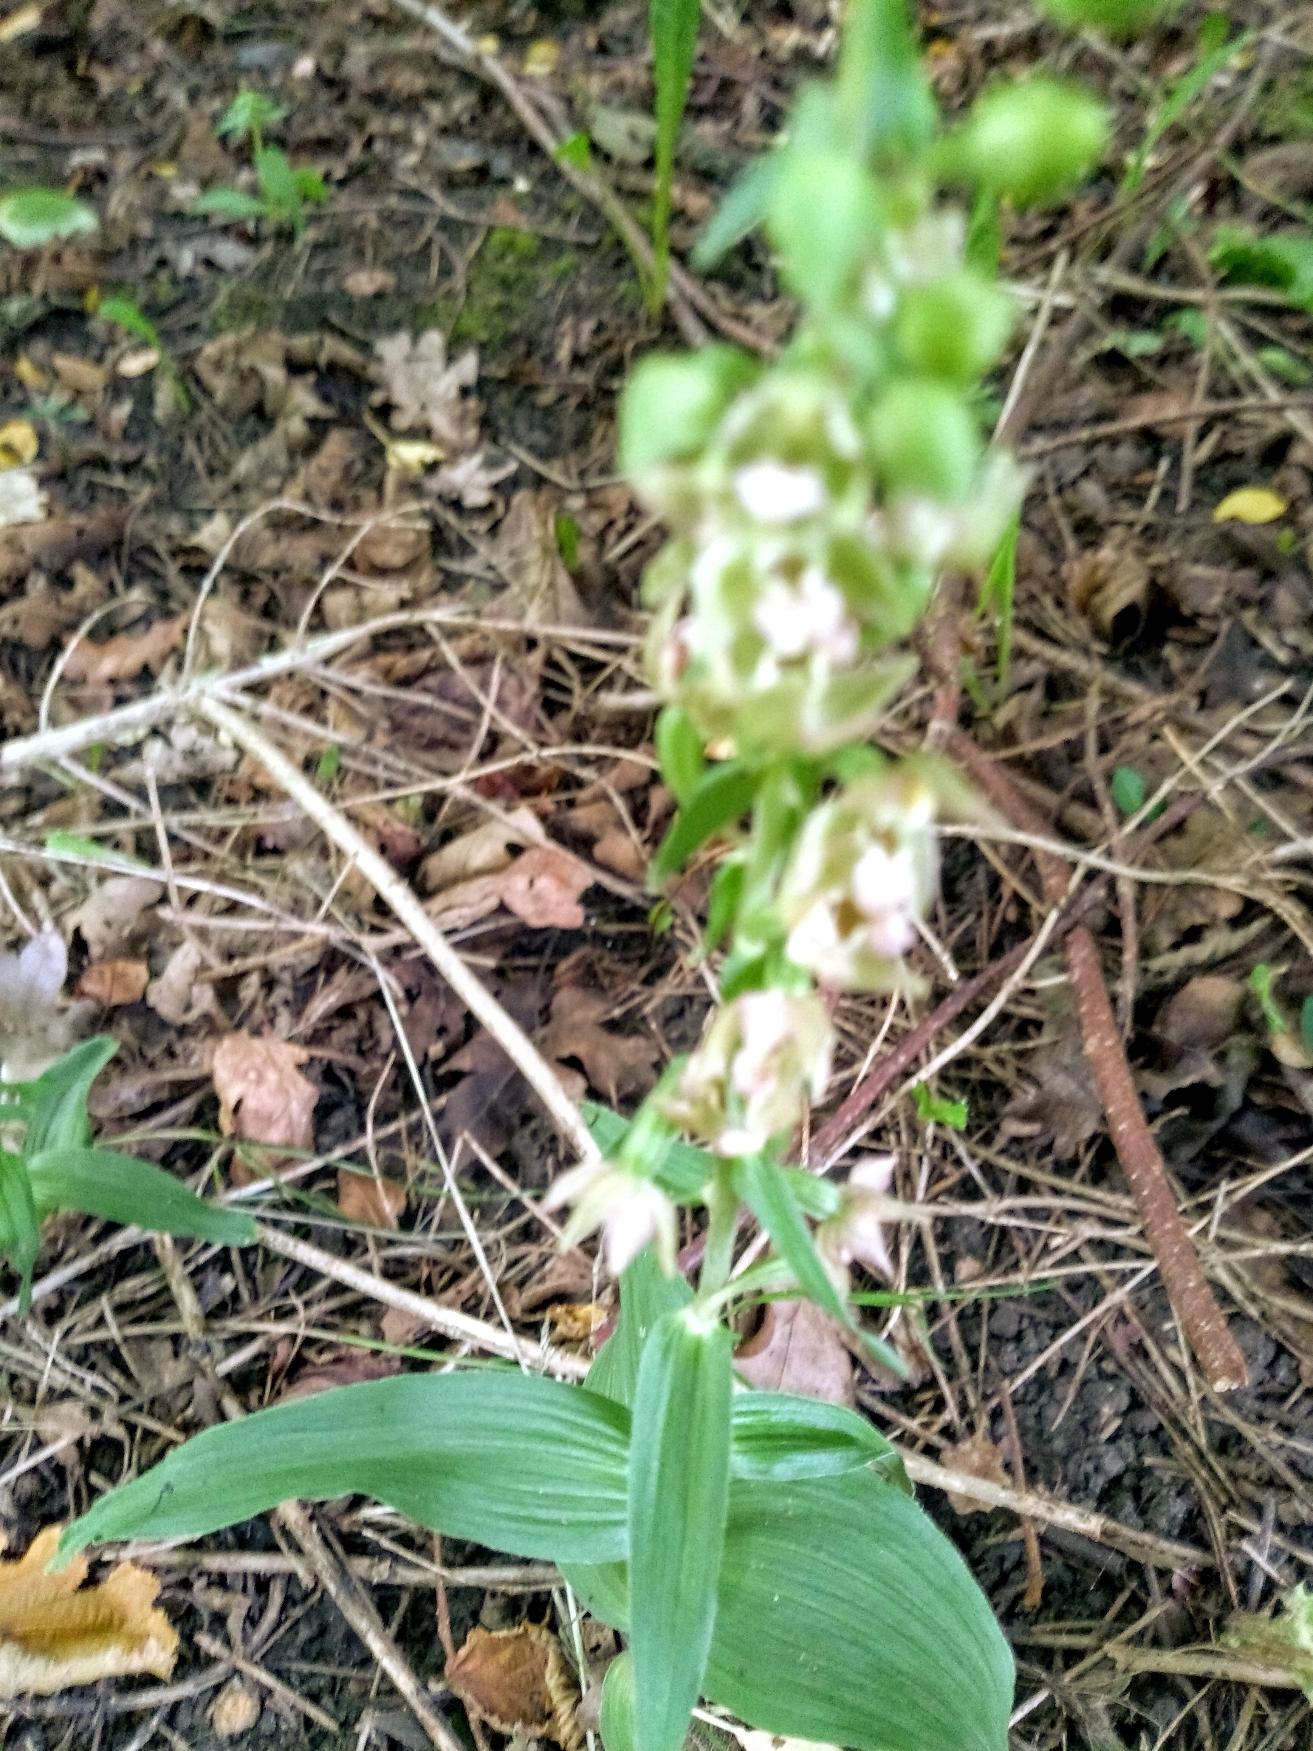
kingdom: Plantae
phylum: Tracheophyta
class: Liliopsida
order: Asparagales
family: Orchidaceae
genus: Epipactis
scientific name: Epipactis helleborine
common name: Skov-hullæbe
